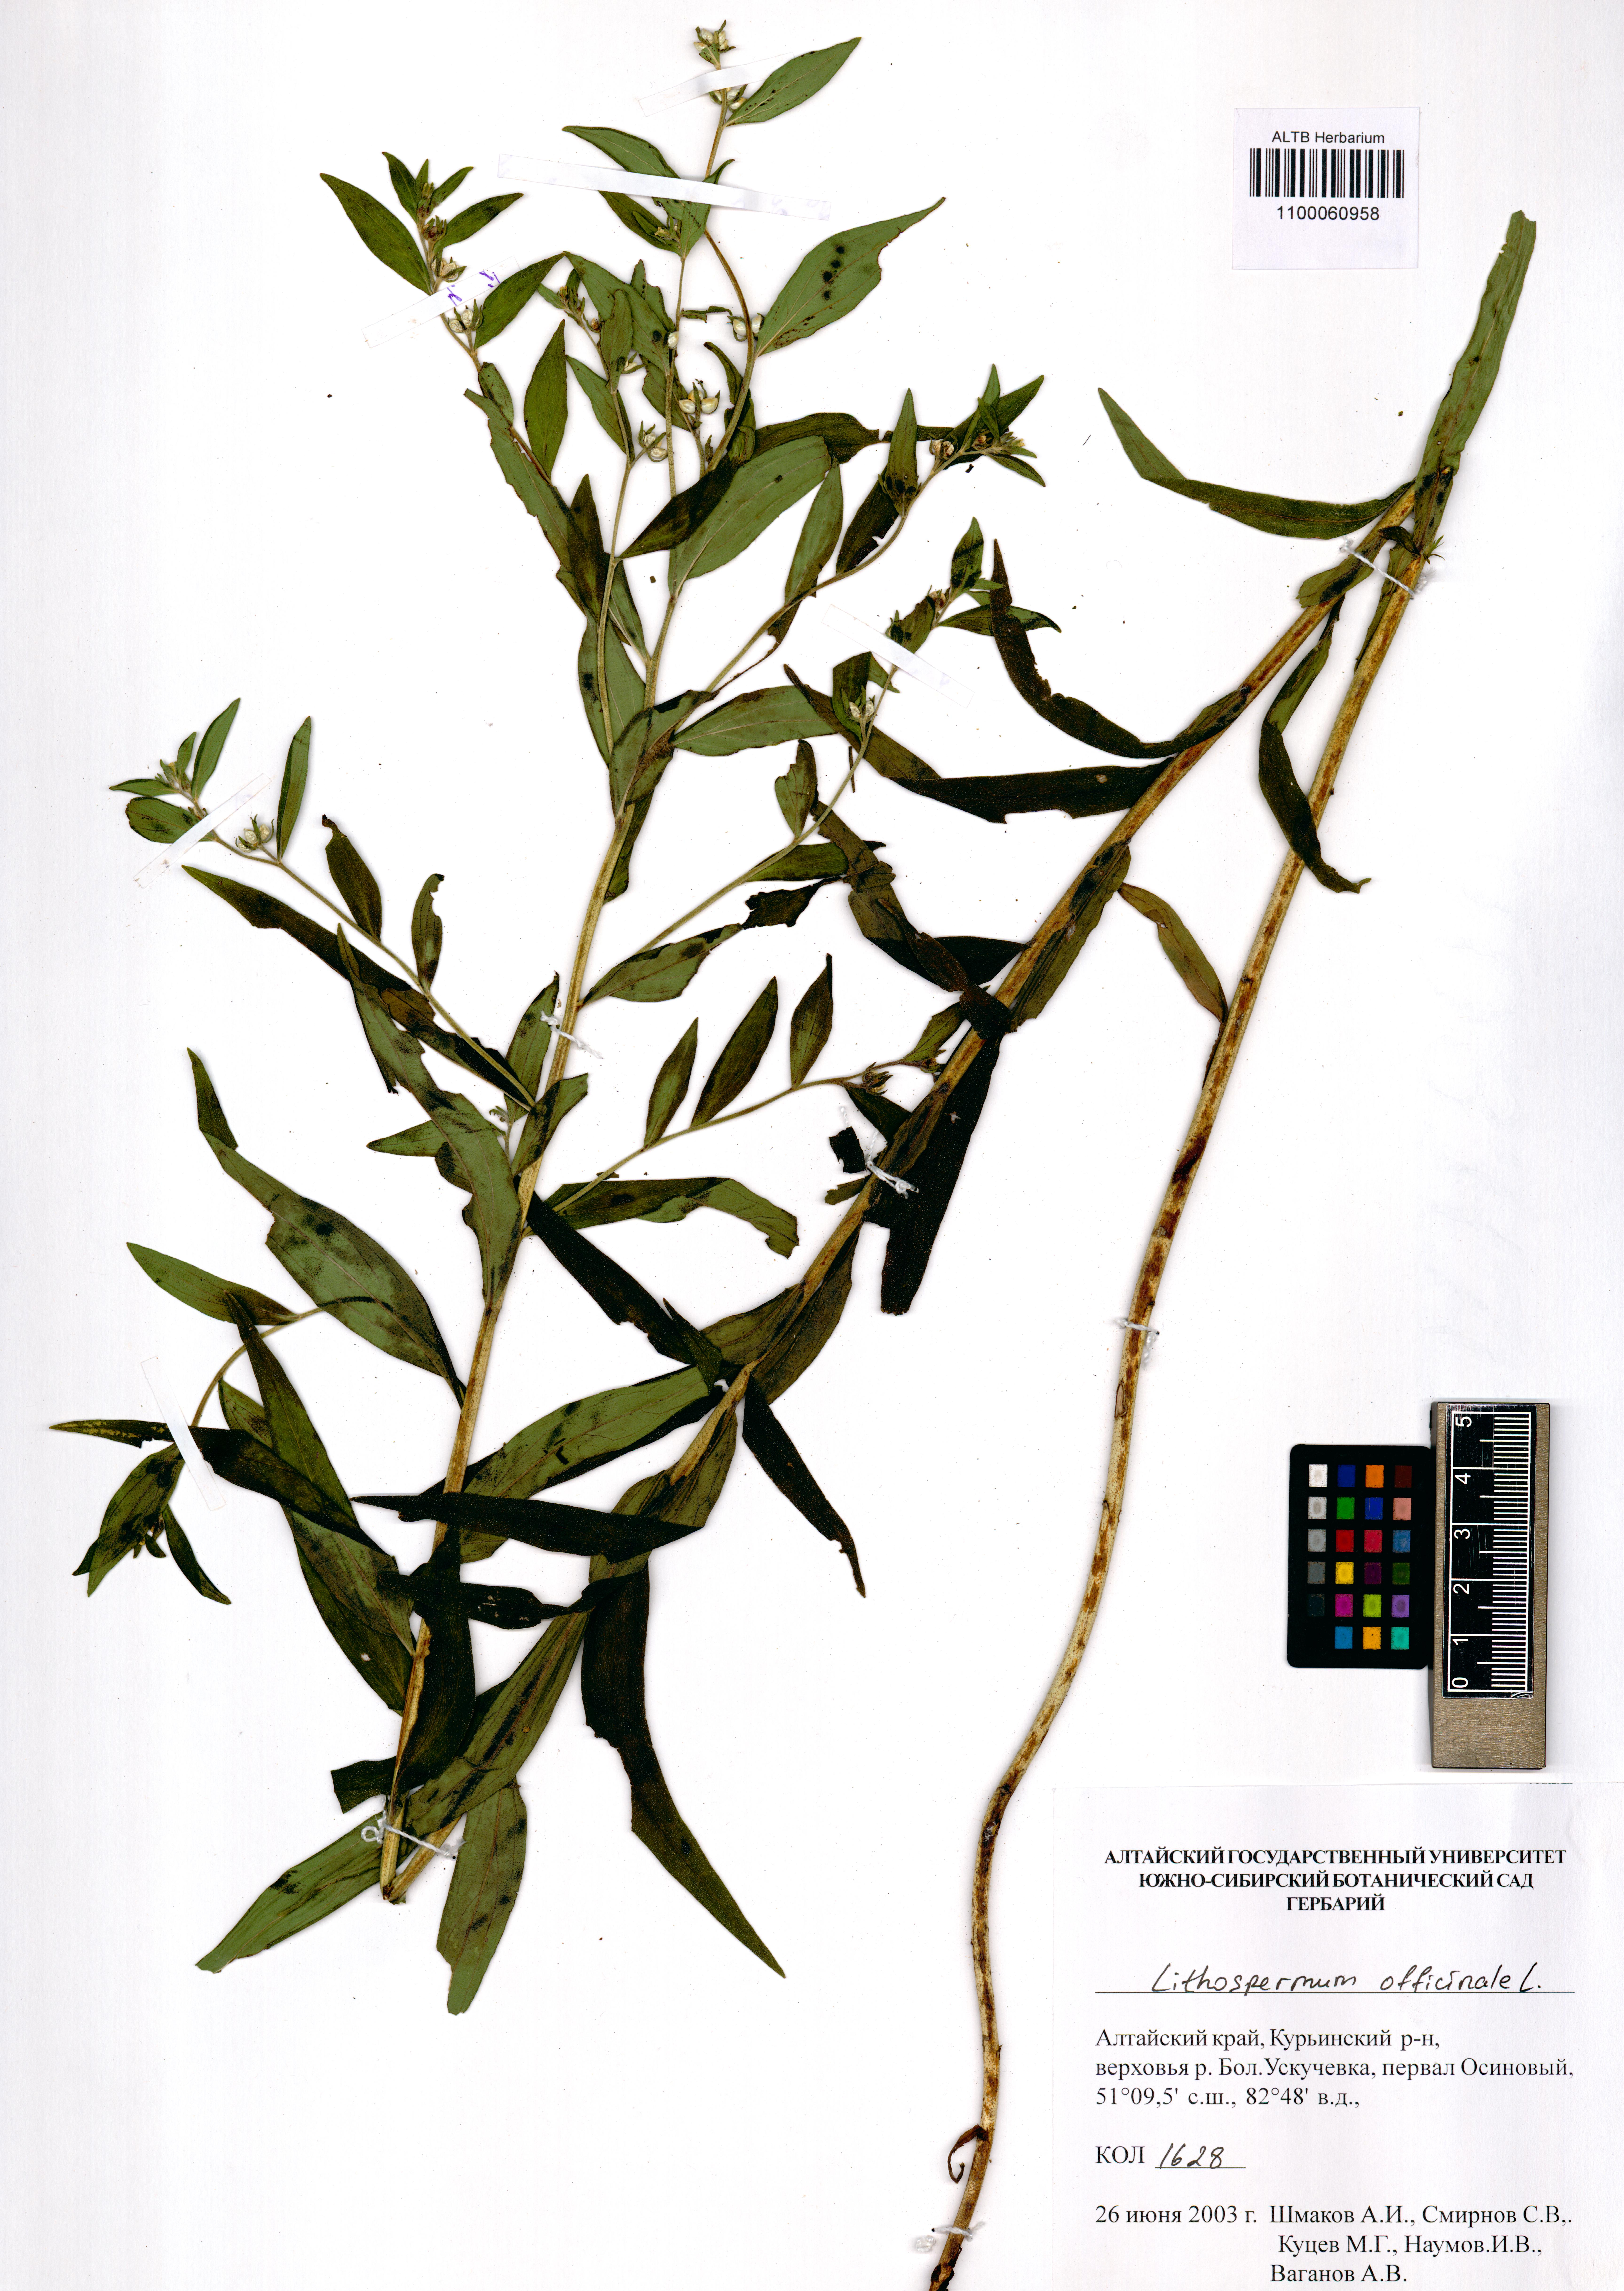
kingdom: Plantae
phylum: Tracheophyta
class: Magnoliopsida
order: Boraginales
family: Boraginaceae
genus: Lithospermum
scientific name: Lithospermum officinale
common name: Common gromwell
